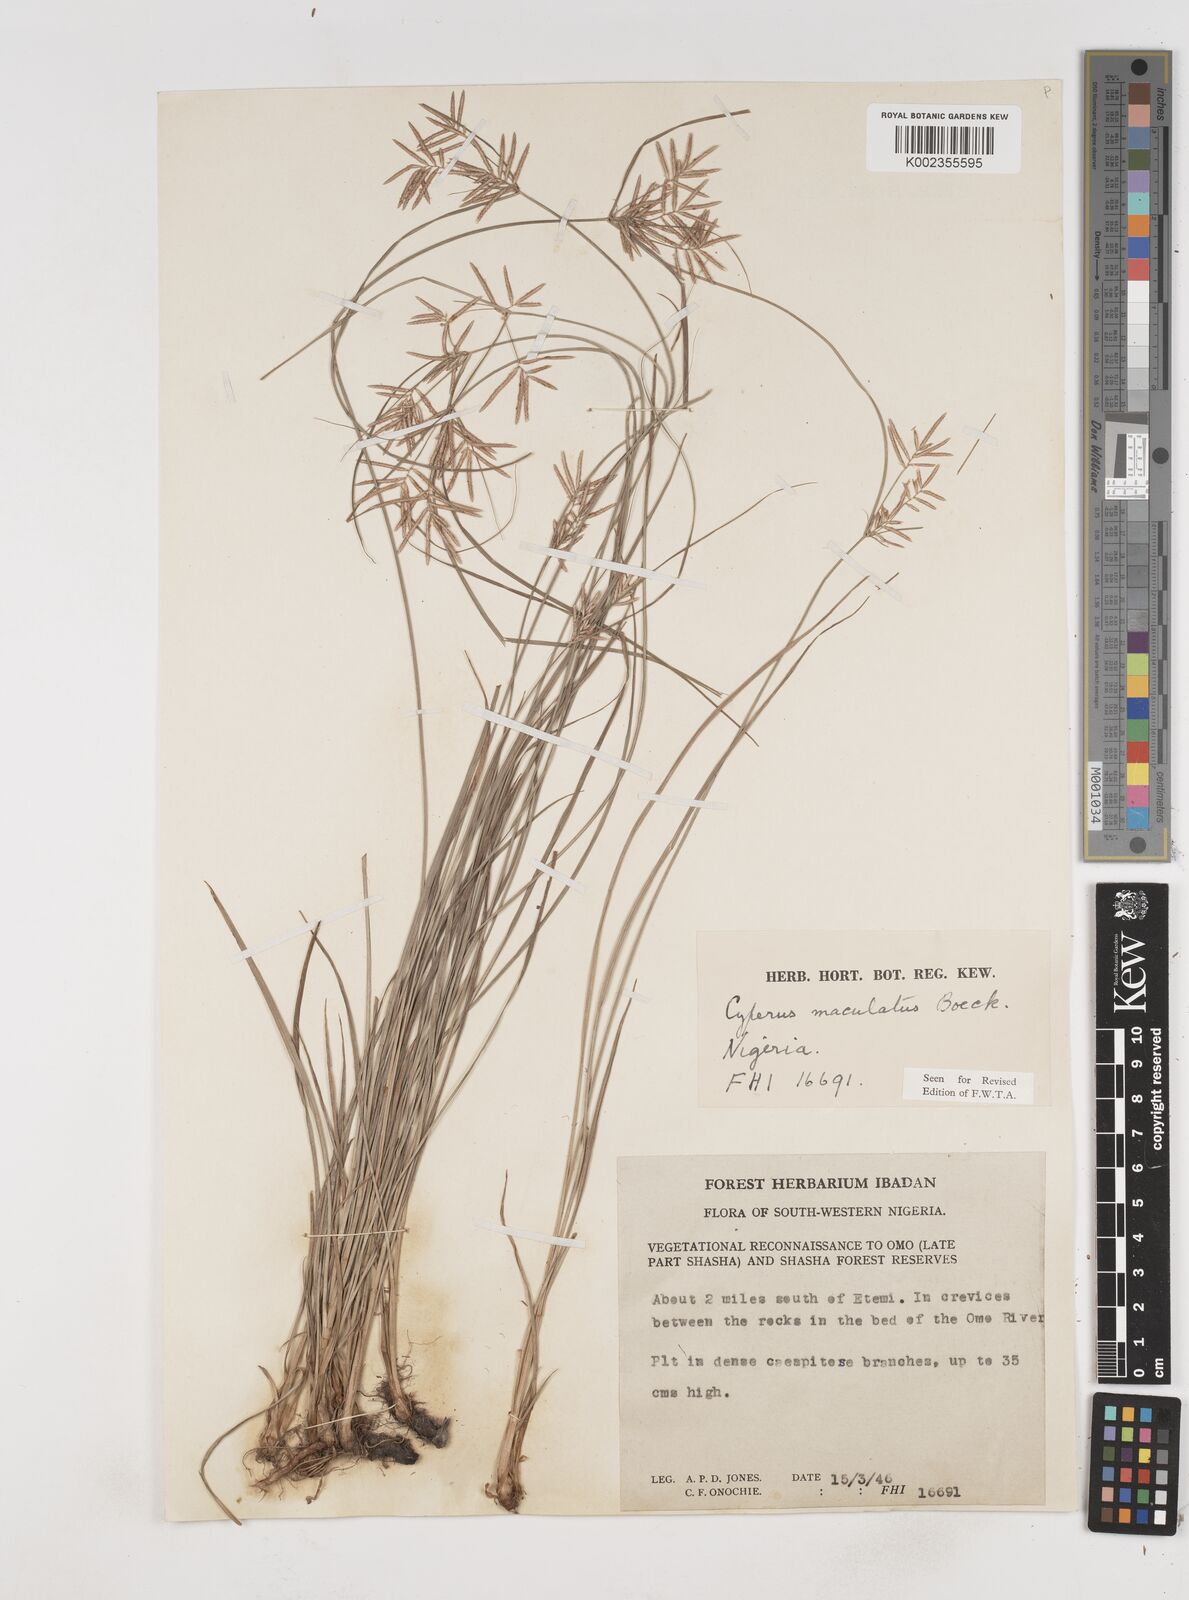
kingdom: Plantae
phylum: Tracheophyta
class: Liliopsida
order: Poales
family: Cyperaceae
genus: Cyperus
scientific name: Cyperus maculatus
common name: Maculated sedge
